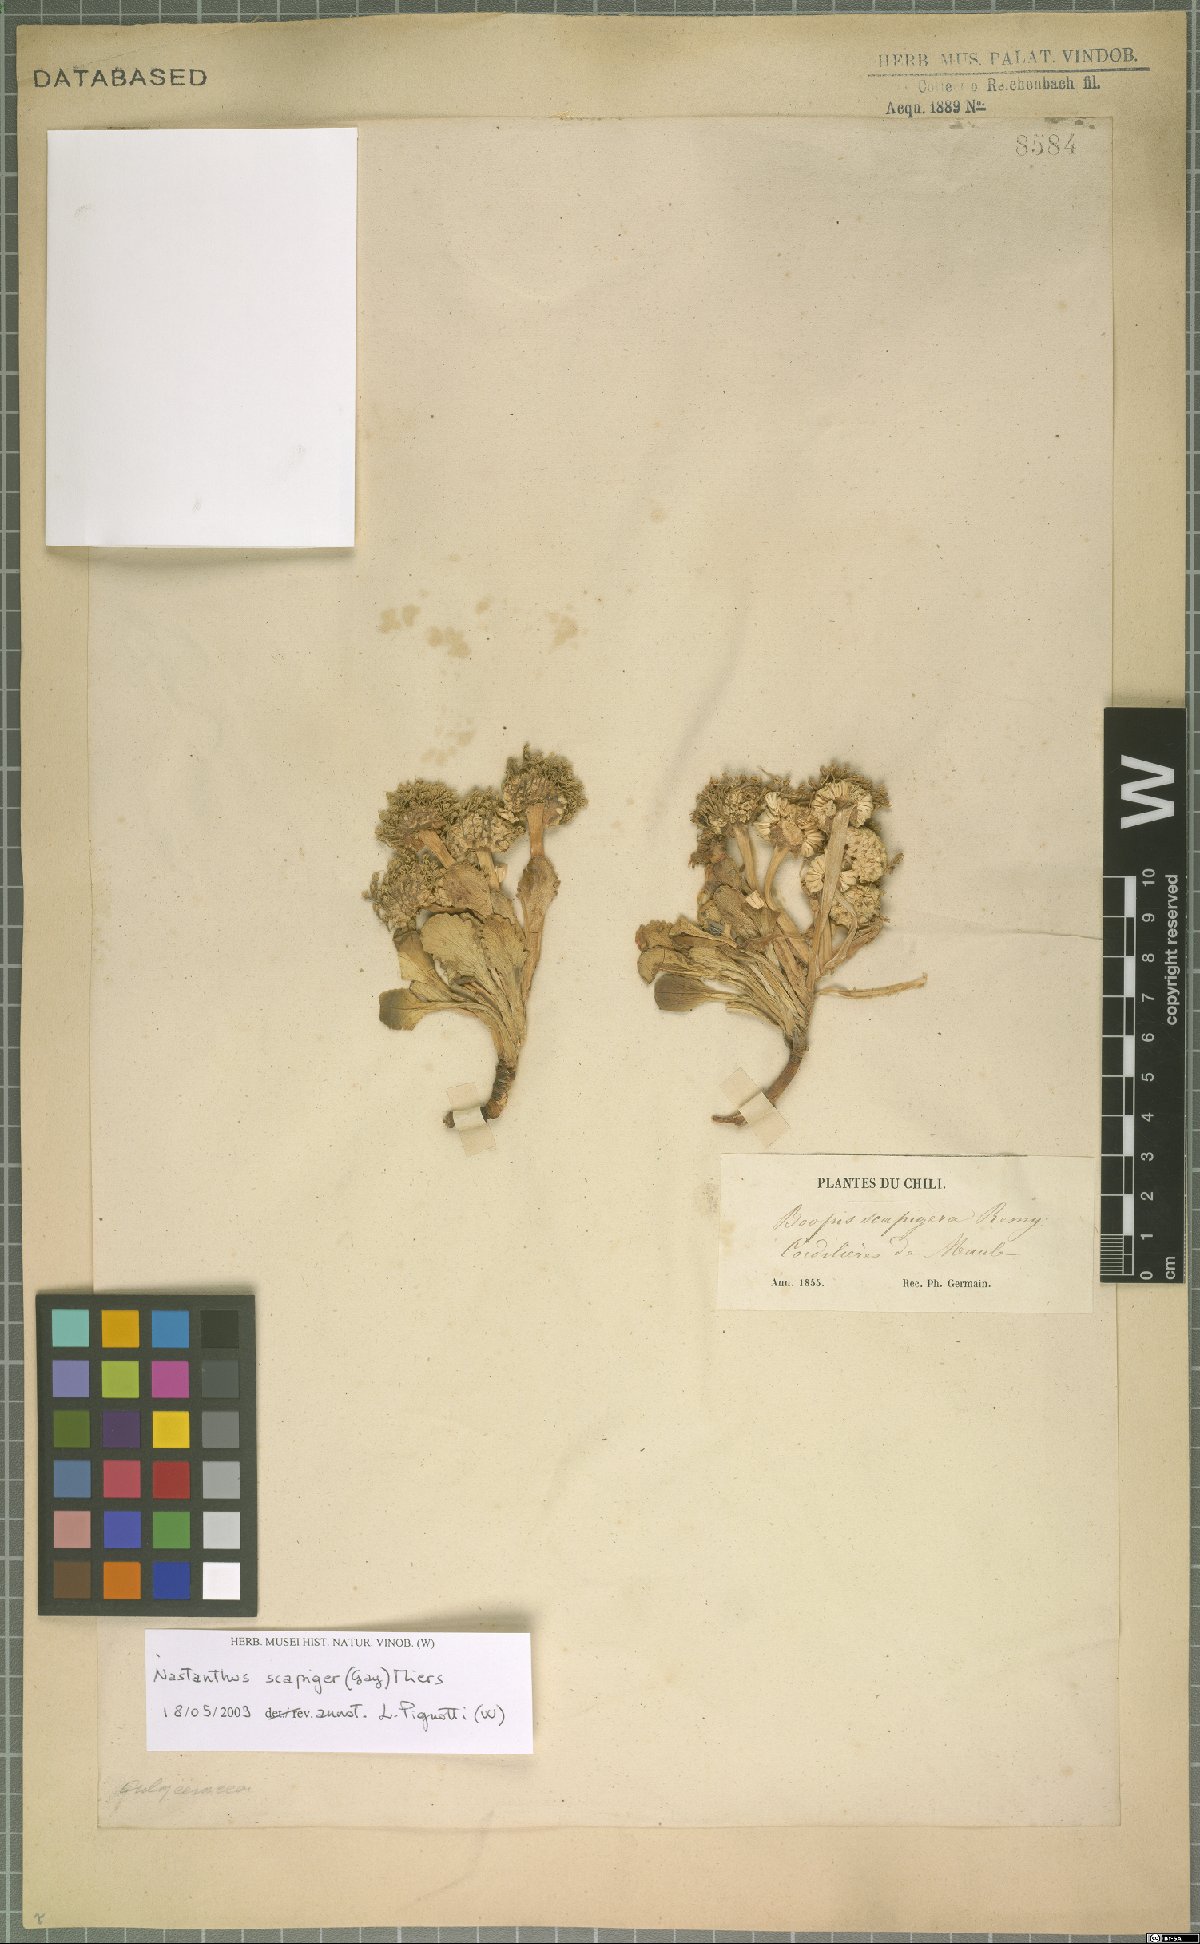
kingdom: Plantae
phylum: Tracheophyta
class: Magnoliopsida
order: Asterales
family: Calyceraceae
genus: Gamocarpha
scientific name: Gamocarpha scapigera
